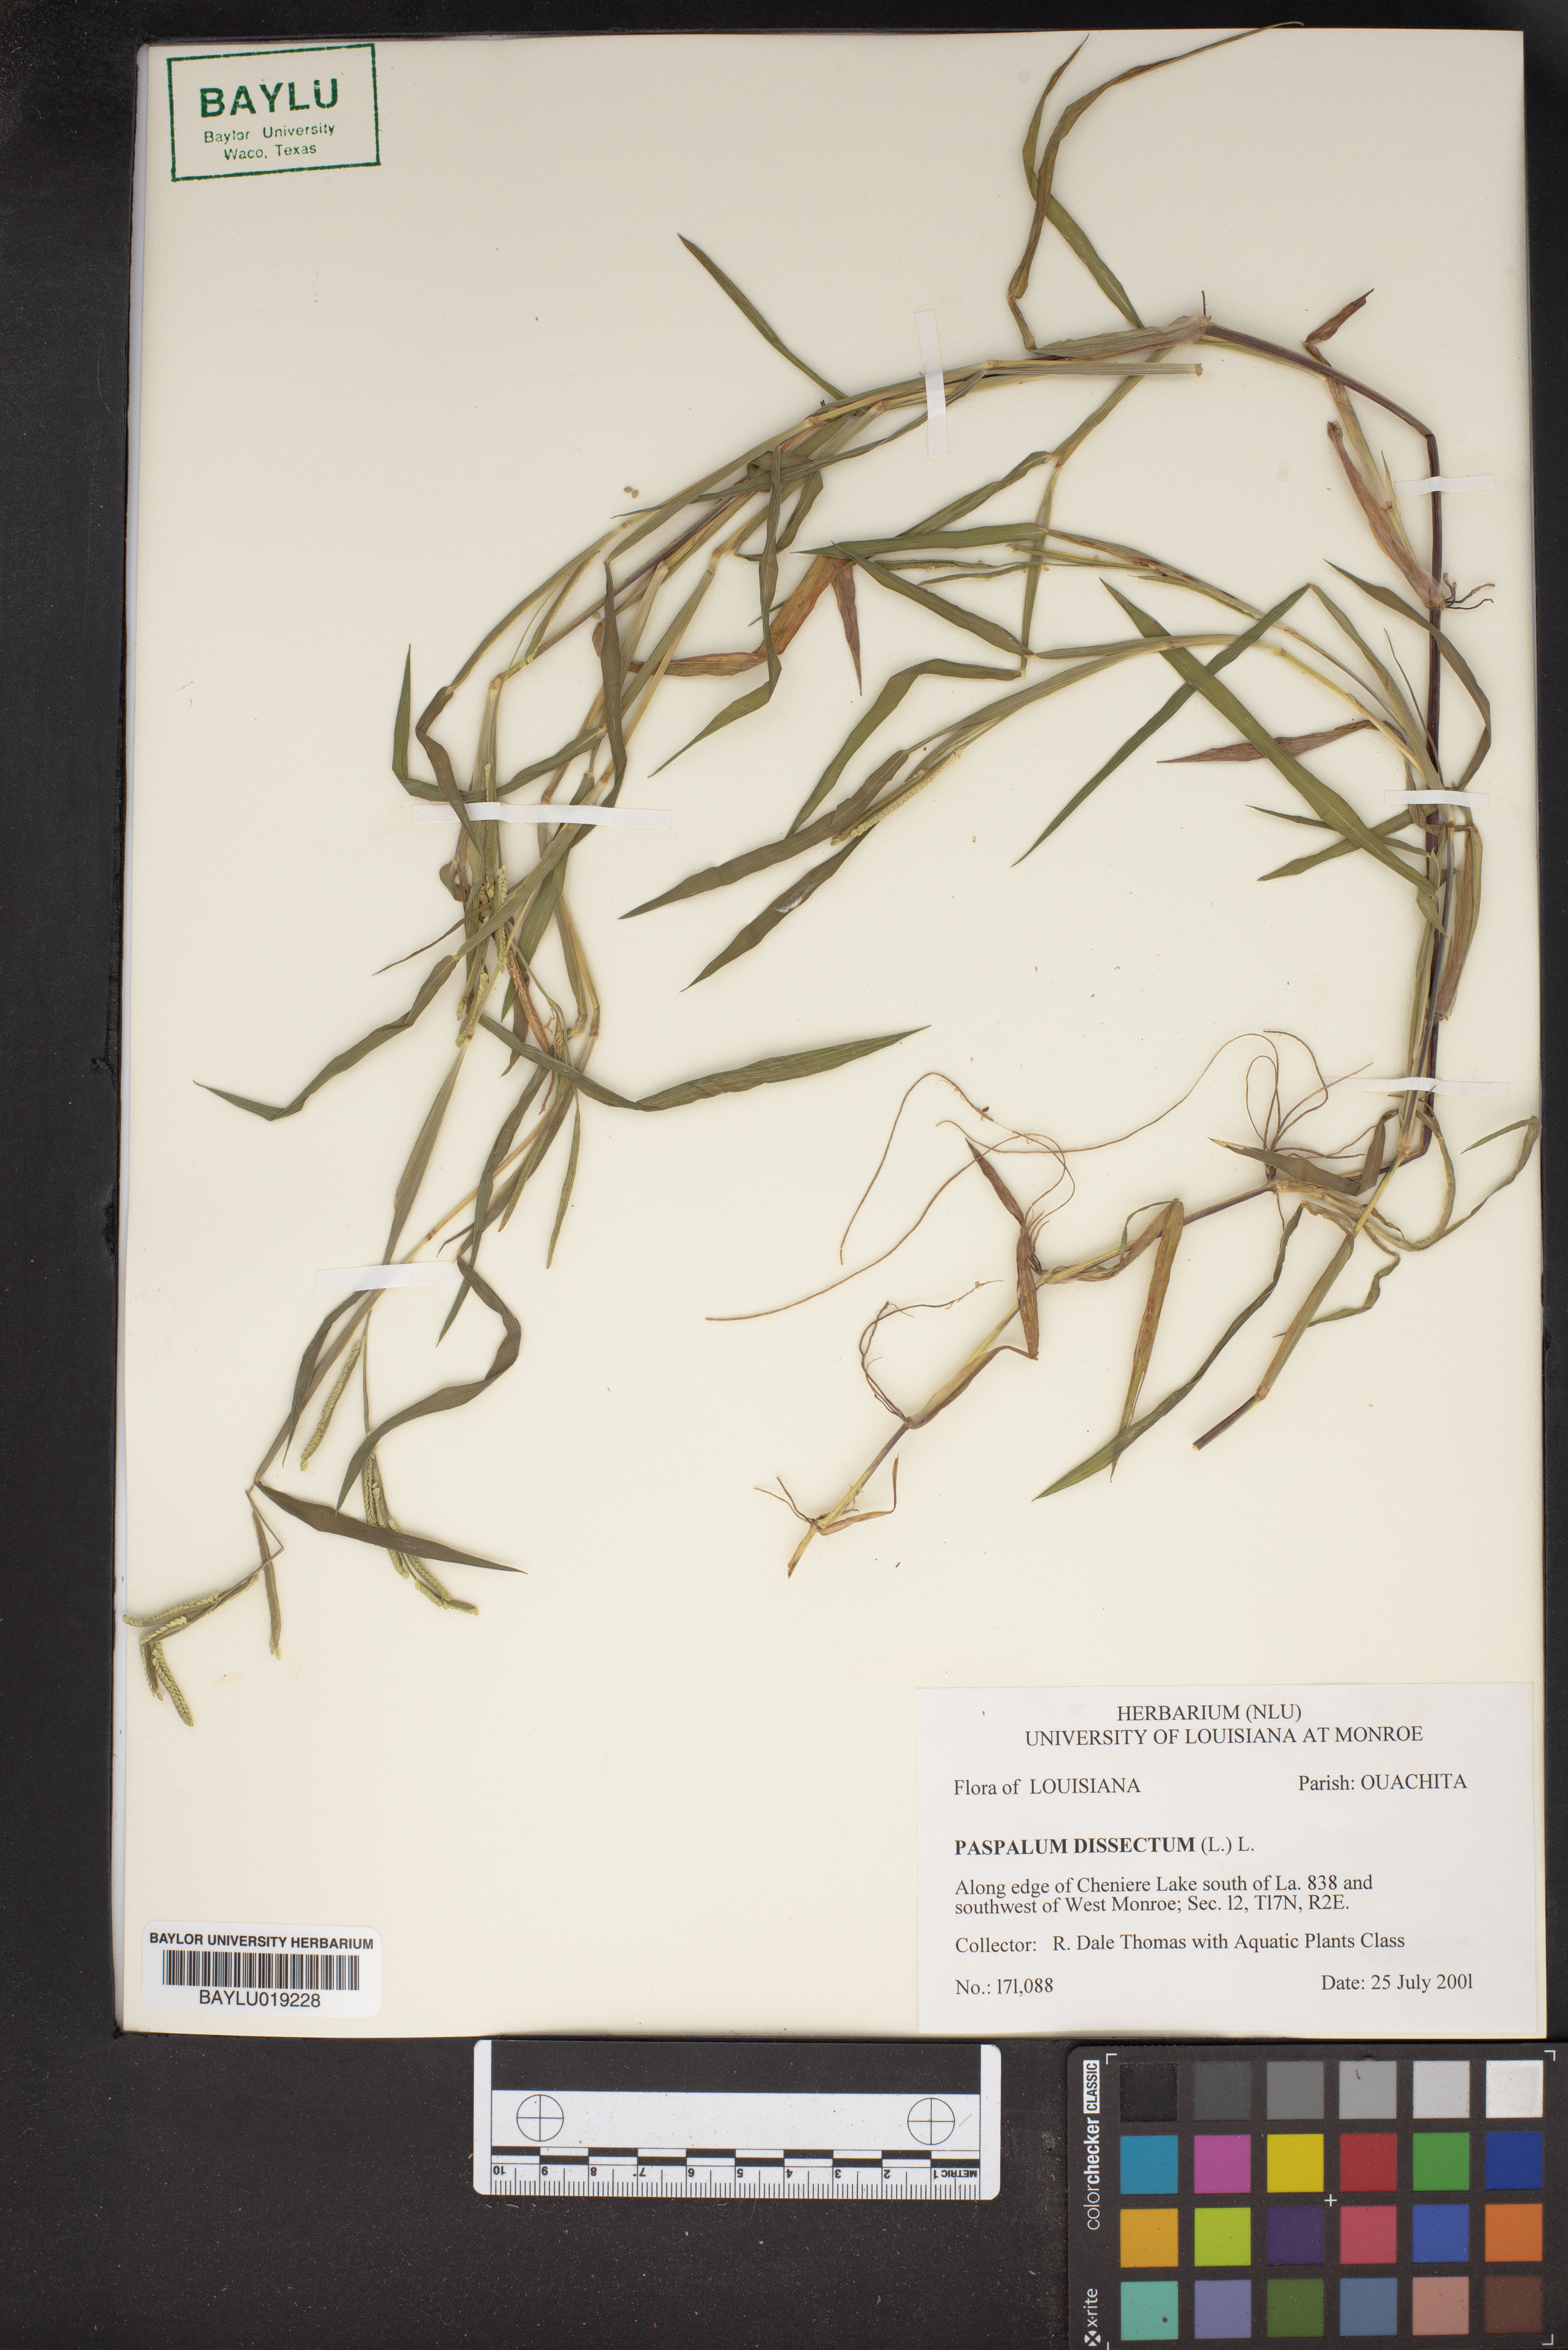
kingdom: Plantae
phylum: Tracheophyta
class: Liliopsida
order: Poales
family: Poaceae
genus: Paspalum
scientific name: Paspalum dissectum
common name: Bead grass
